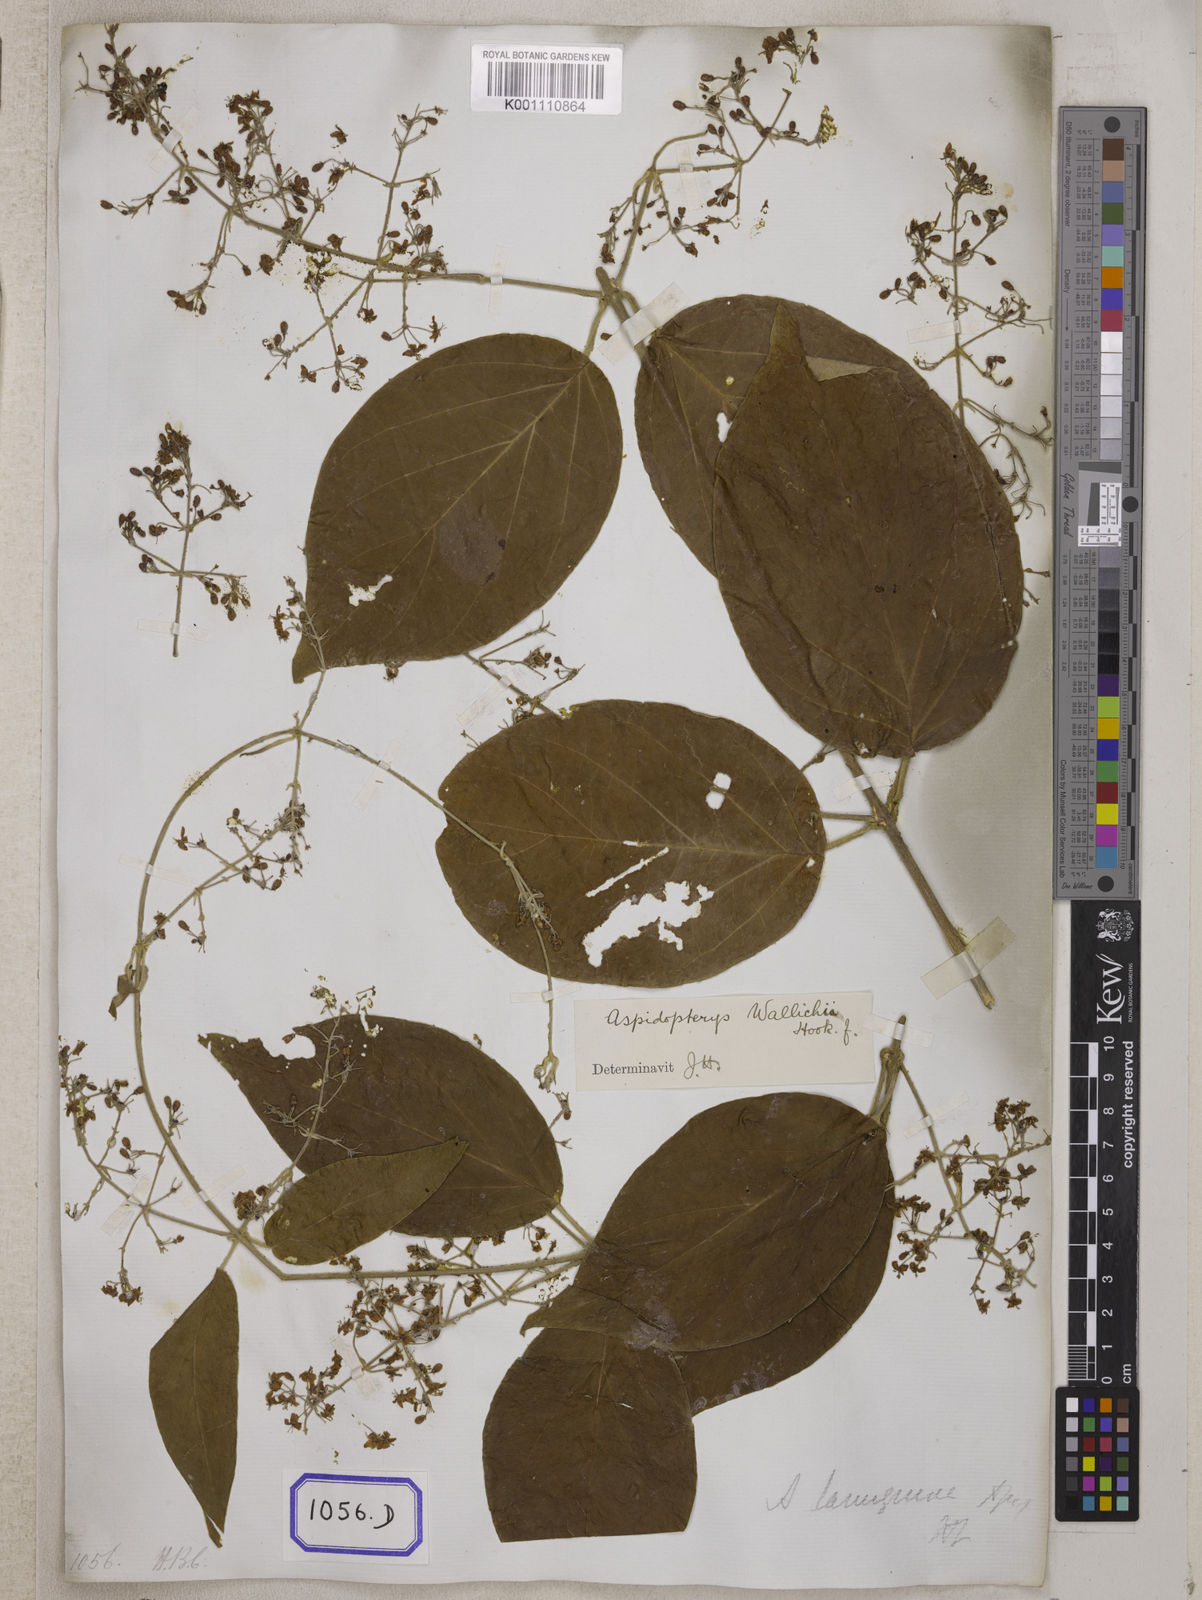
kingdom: Plantae
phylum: Tracheophyta
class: Magnoliopsida
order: Malpighiales
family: Malpighiaceae
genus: Hiraea
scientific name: Hiraea
